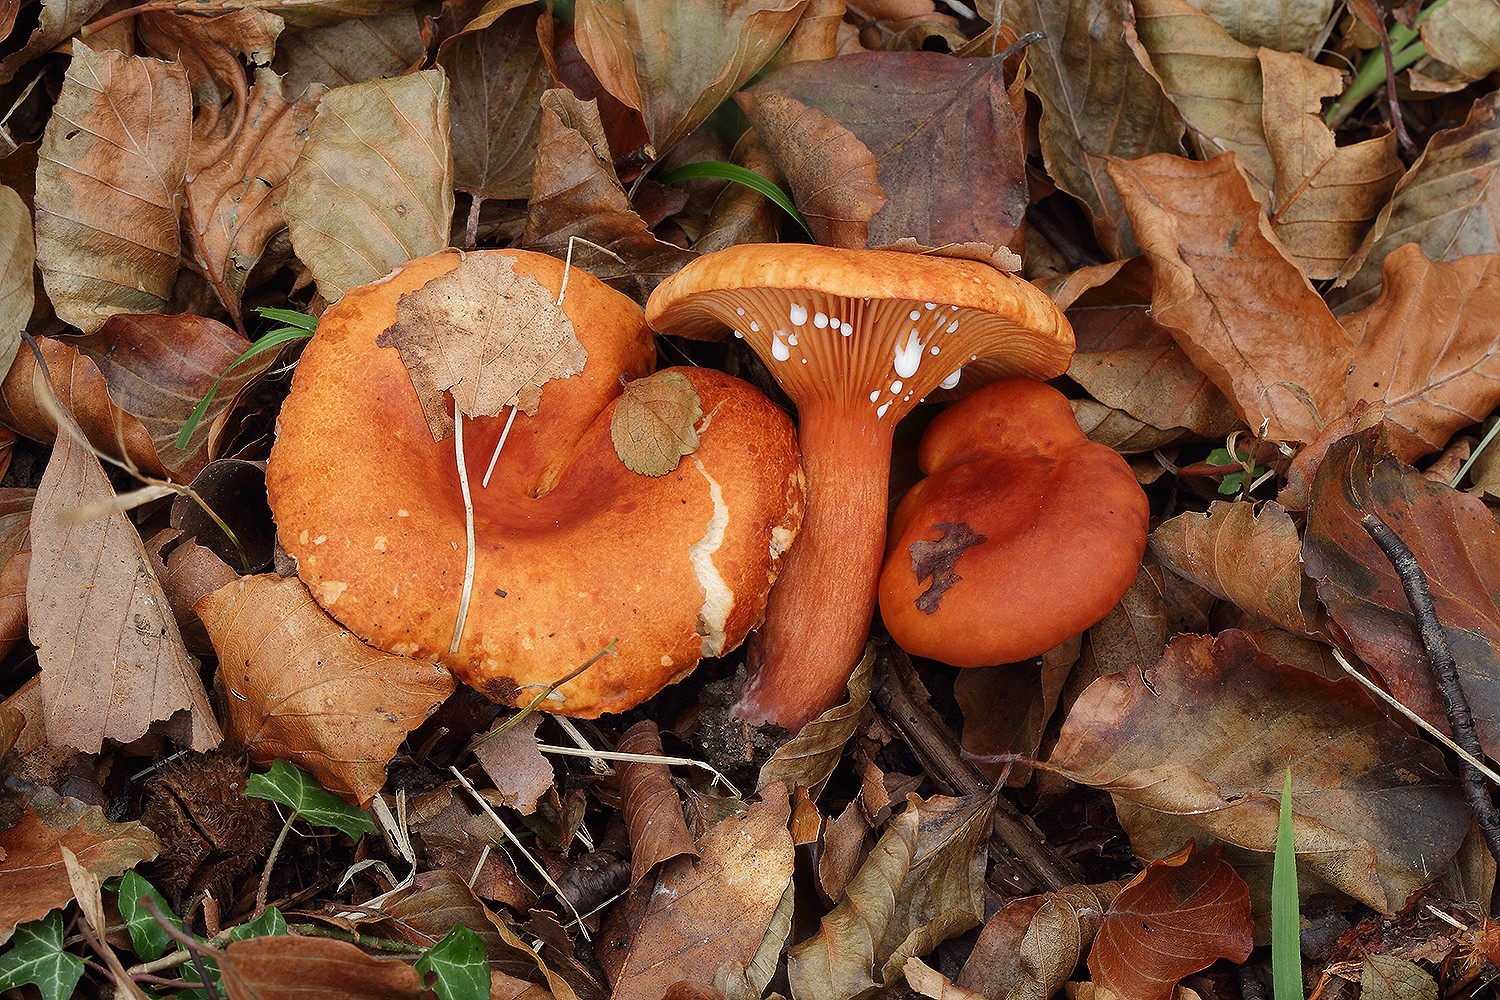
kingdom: Fungi
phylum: Basidiomycota
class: Agaricomycetes
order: Russulales
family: Russulaceae
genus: Lactarius
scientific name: Lactarius fulvissimus
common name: ræve-mælkehat
